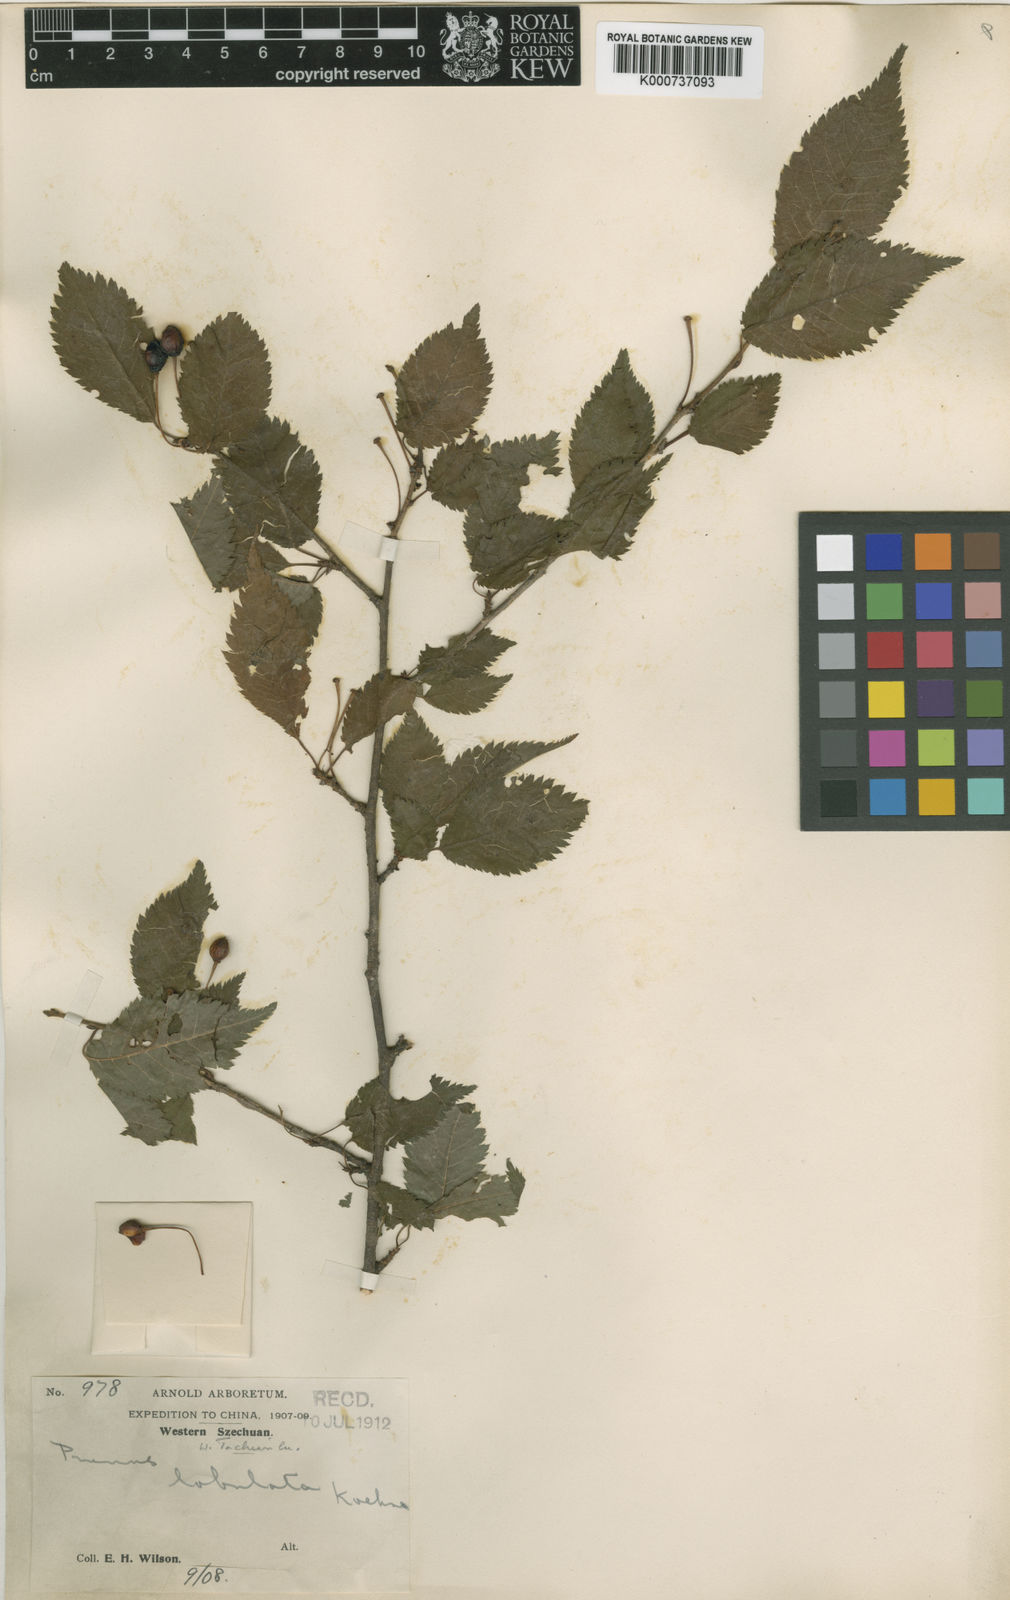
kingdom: Plantae
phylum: Tracheophyta
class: Magnoliopsida
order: Rosales
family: Rosaceae
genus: Prunus
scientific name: Prunus trichostoma
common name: Ribbed cherry
